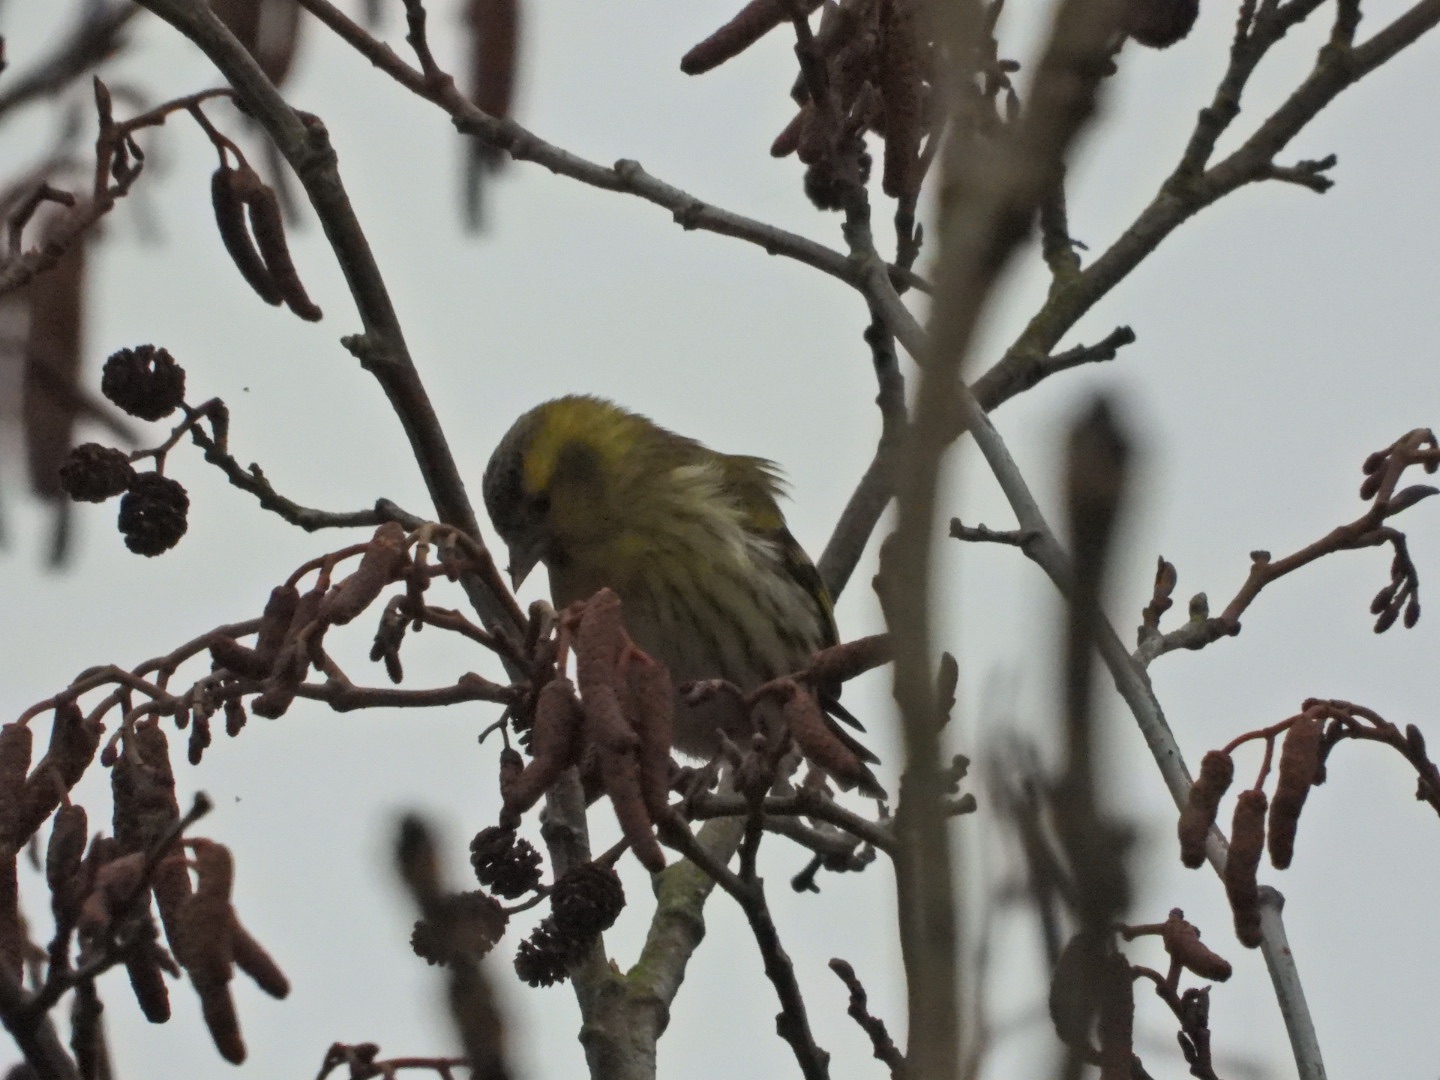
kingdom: Animalia
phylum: Chordata
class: Aves
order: Passeriformes
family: Fringillidae
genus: Spinus
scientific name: Spinus spinus
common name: Grønsisken
